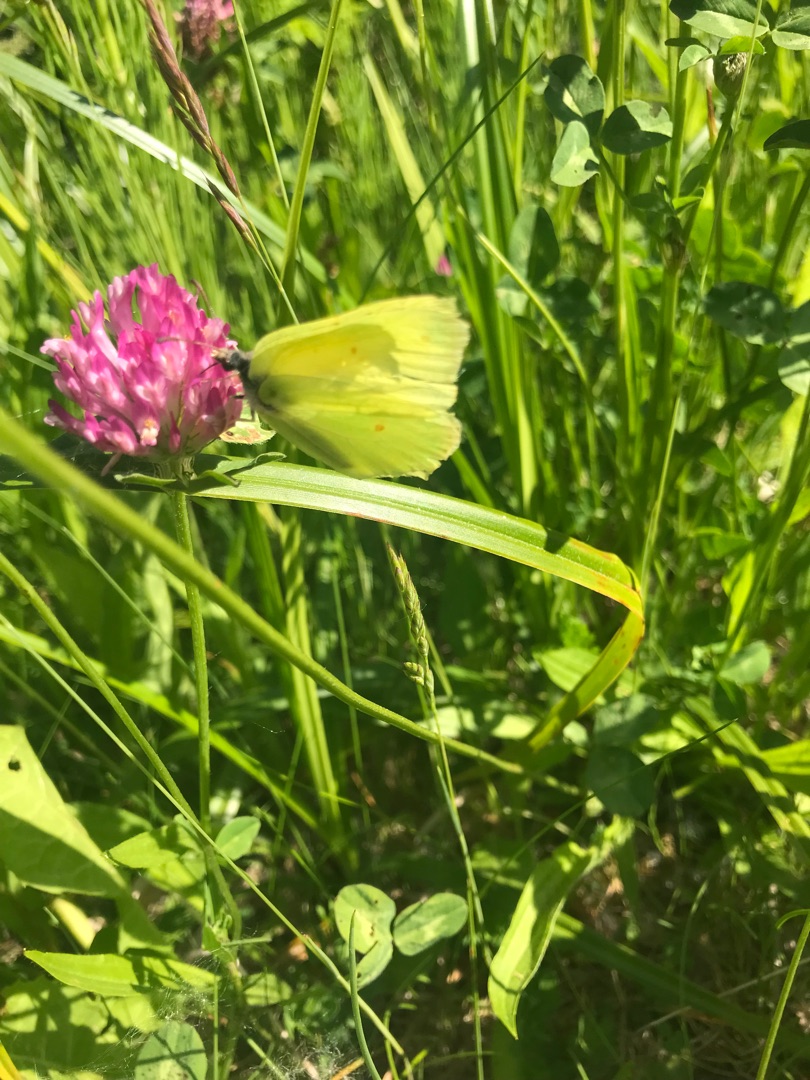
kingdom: Animalia
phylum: Arthropoda
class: Insecta
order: Lepidoptera
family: Pieridae
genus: Gonepteryx
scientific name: Gonepteryx rhamni
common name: Citronsommerfugl
